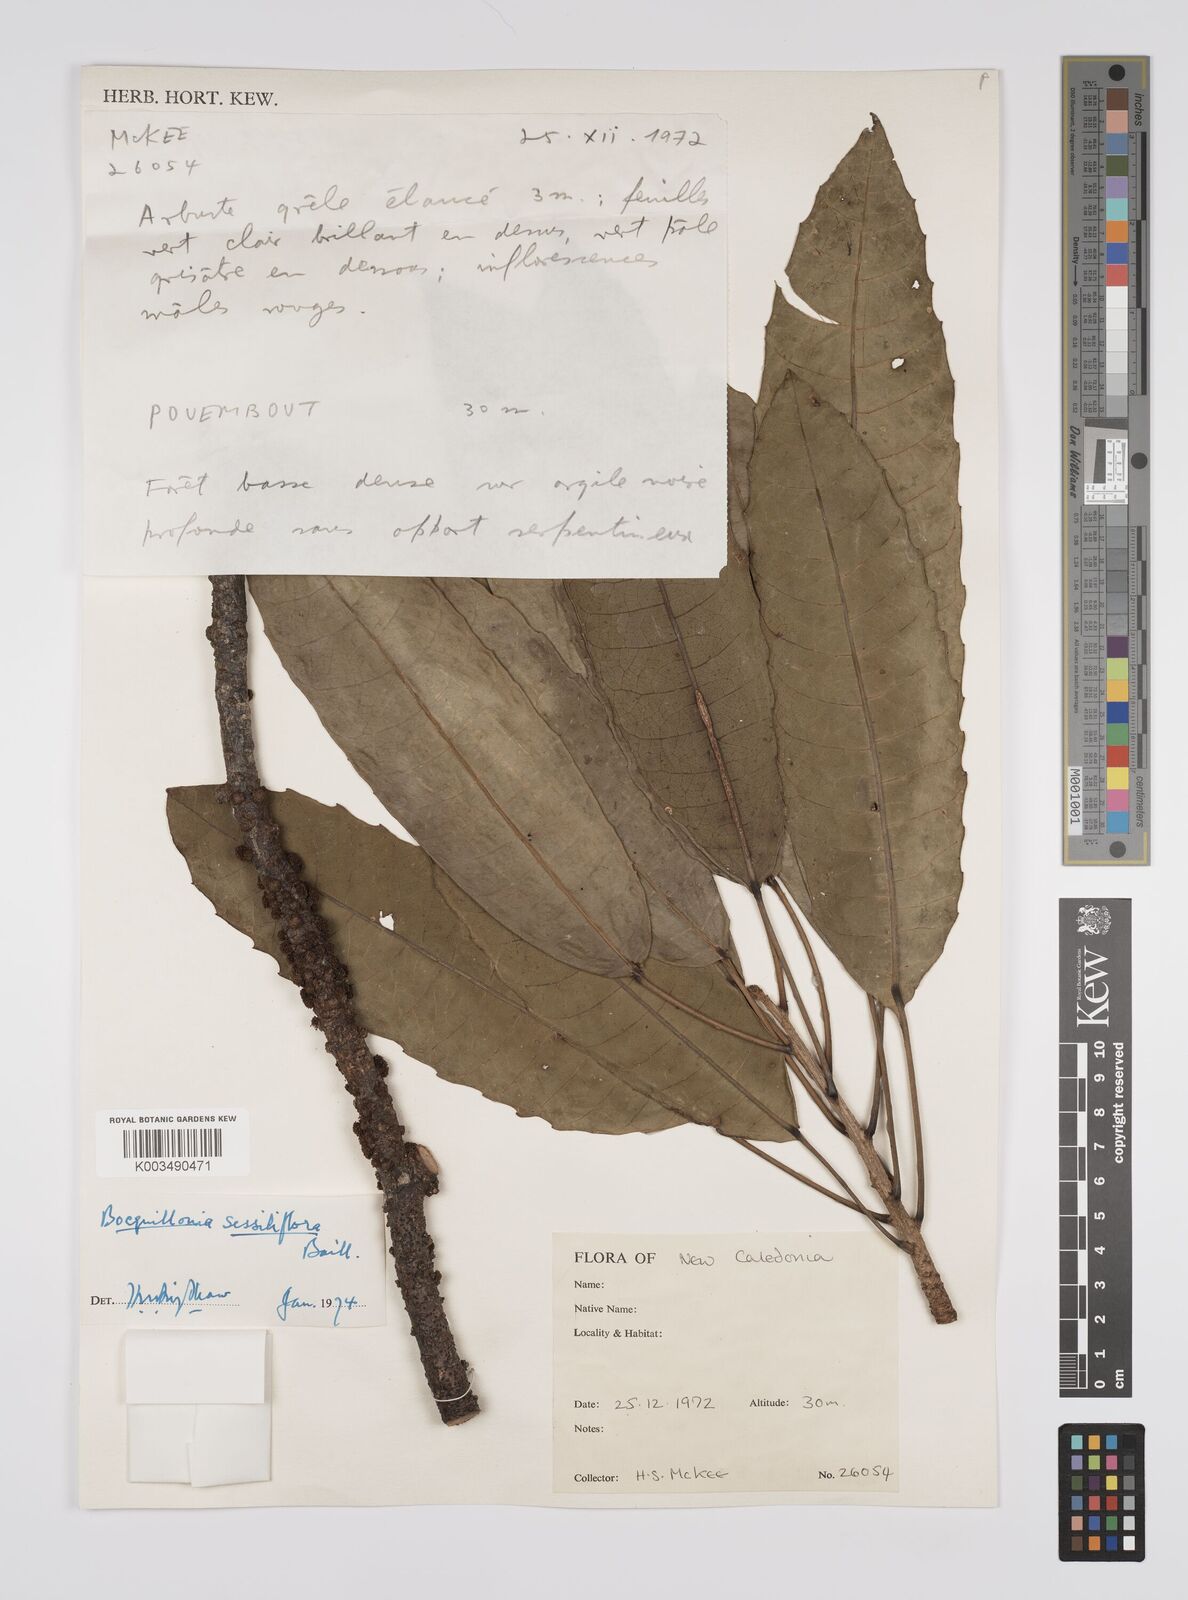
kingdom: Plantae
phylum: Tracheophyta
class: Magnoliopsida
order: Malpighiales
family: Euphorbiaceae
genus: Bocquillonia
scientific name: Bocquillonia sessiliflora
